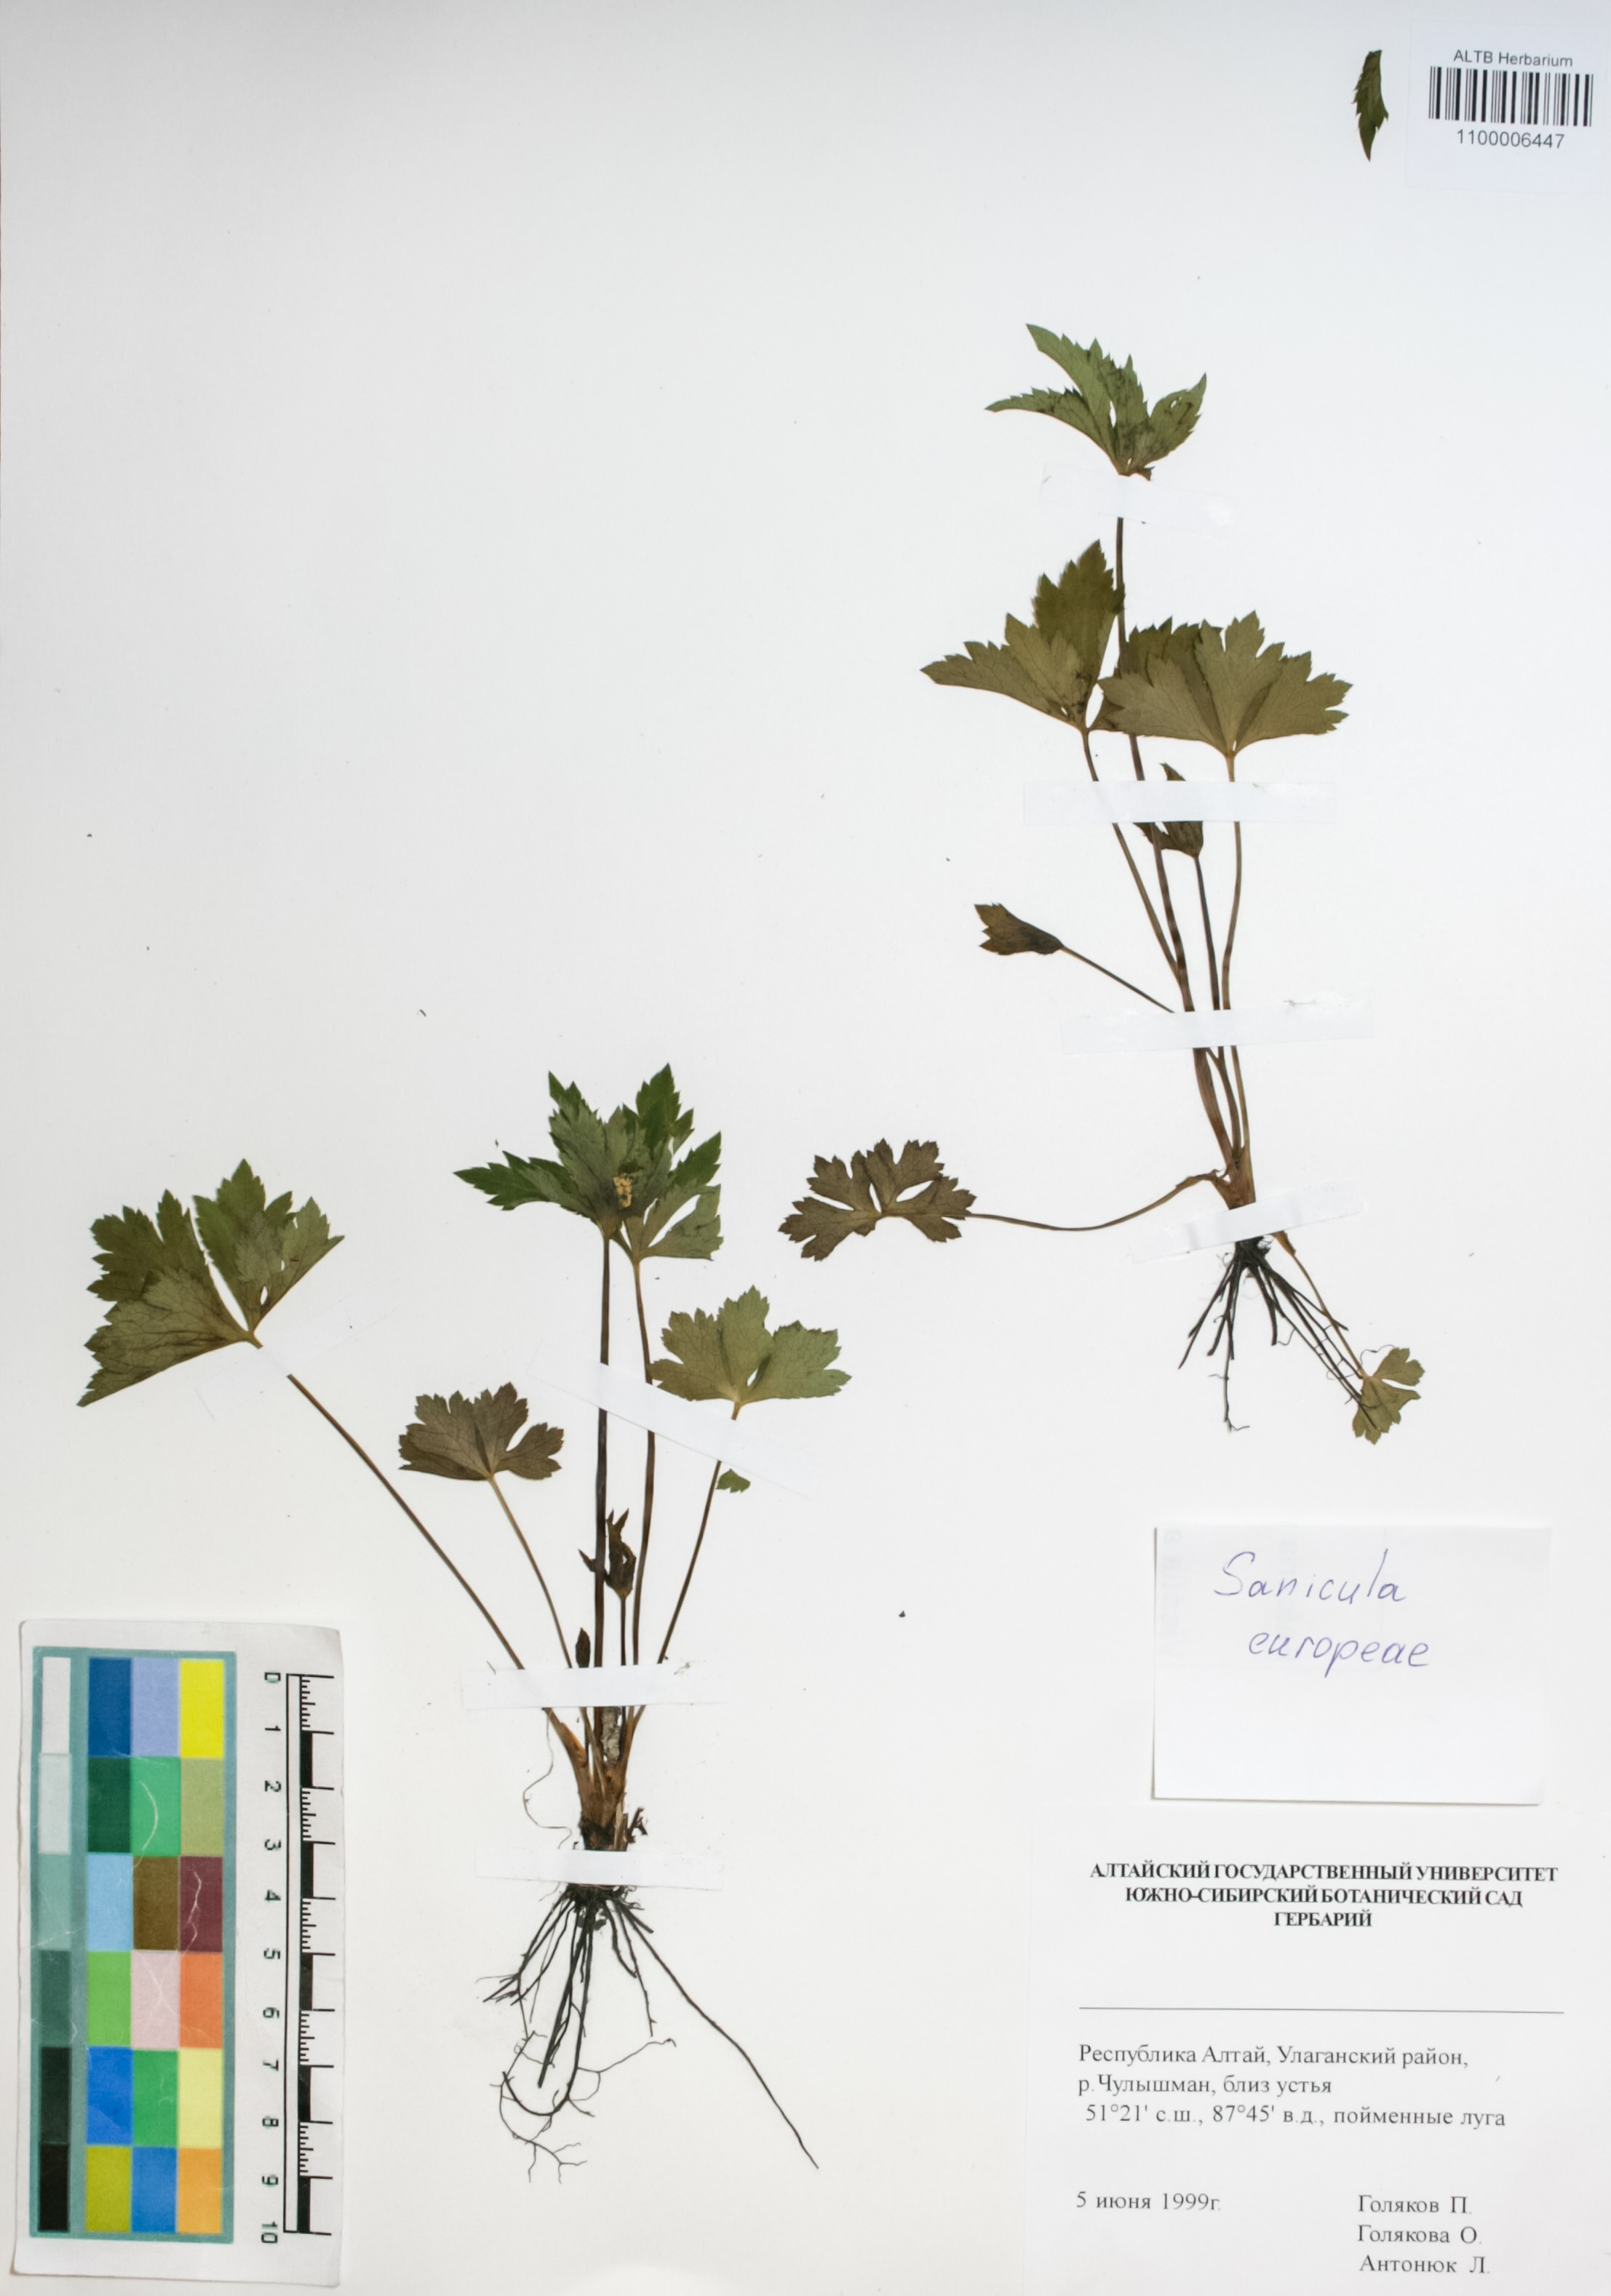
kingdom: Plantae
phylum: Tracheophyta
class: Magnoliopsida
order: Apiales
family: Apiaceae
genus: Sanicula
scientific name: Sanicula europaea
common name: Sanicle
